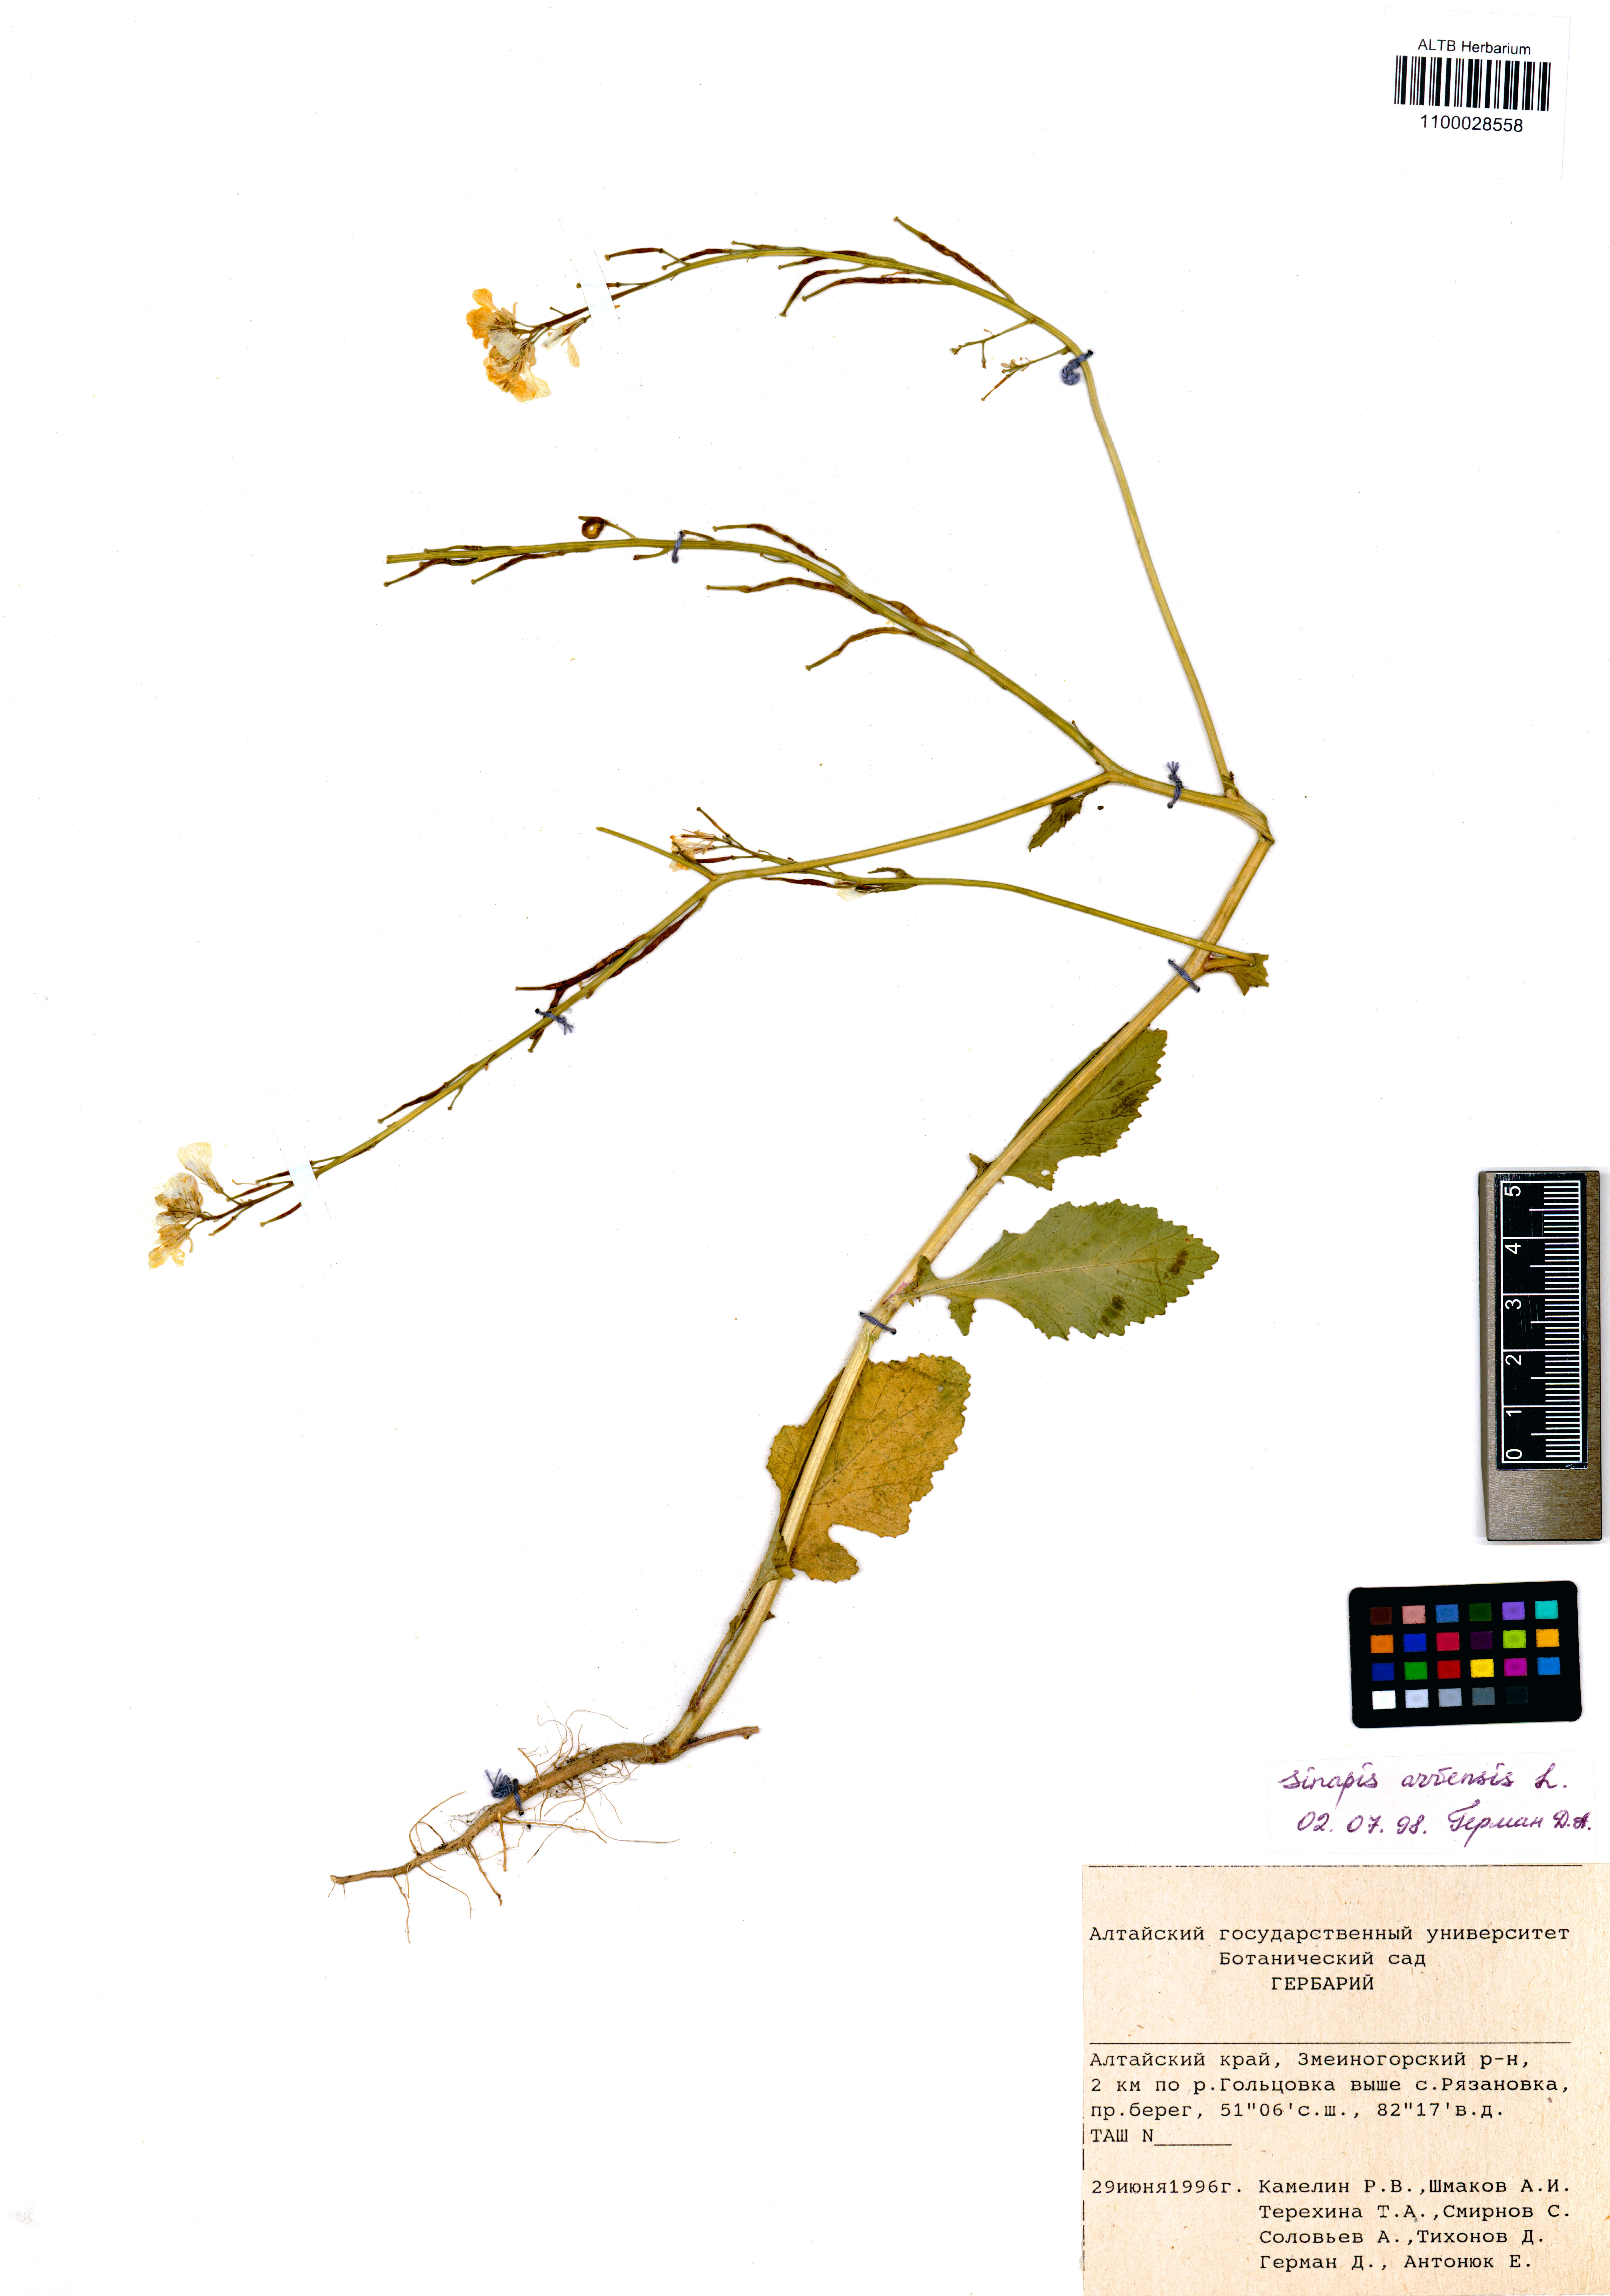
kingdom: Plantae
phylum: Tracheophyta
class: Magnoliopsida
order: Brassicales
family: Brassicaceae
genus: Sinapis
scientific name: Sinapis arvensis
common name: Charlock
